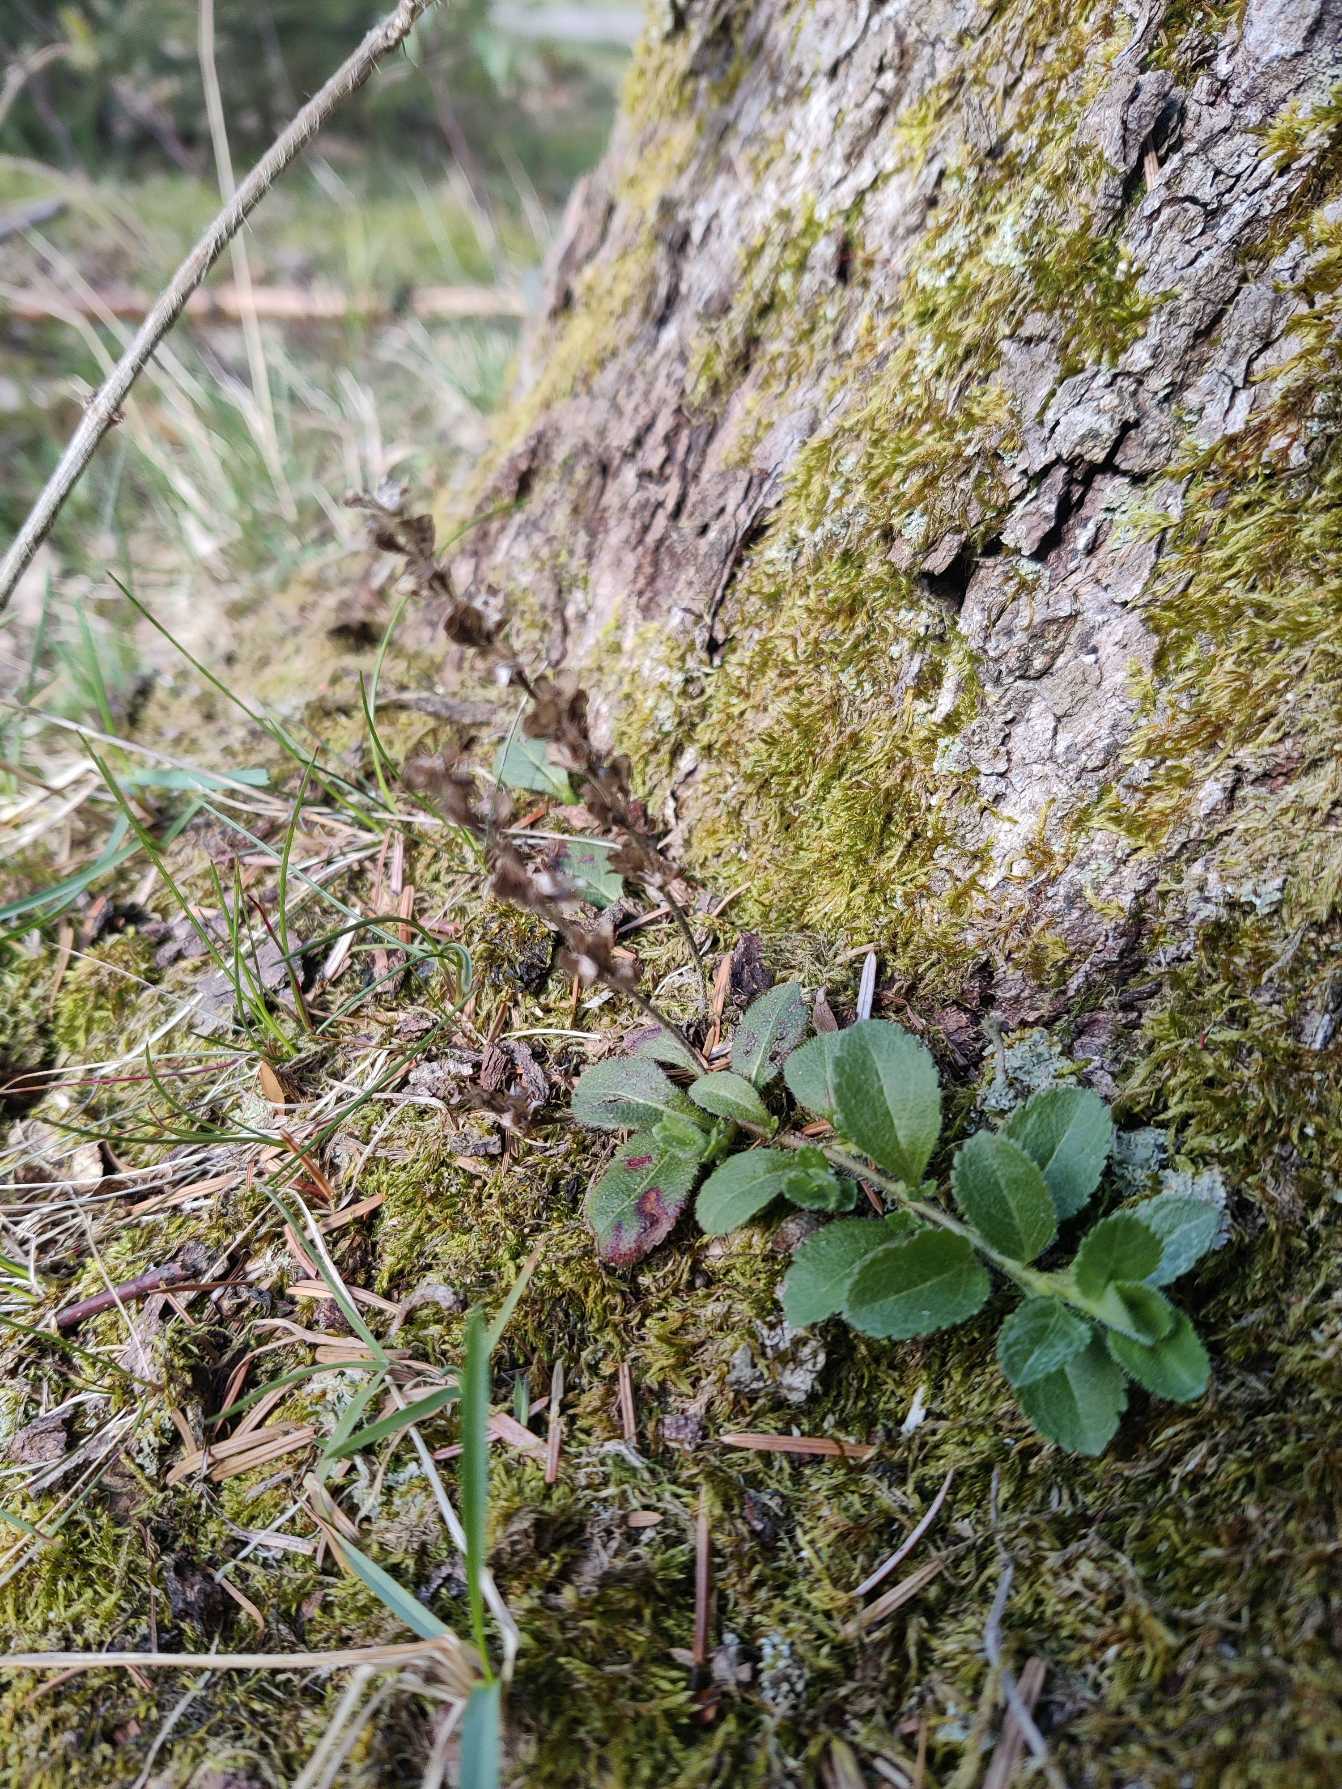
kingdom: Plantae
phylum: Tracheophyta
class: Magnoliopsida
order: Lamiales
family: Plantaginaceae
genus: Veronica
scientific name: Veronica officinalis
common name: Læge-ærenpris
